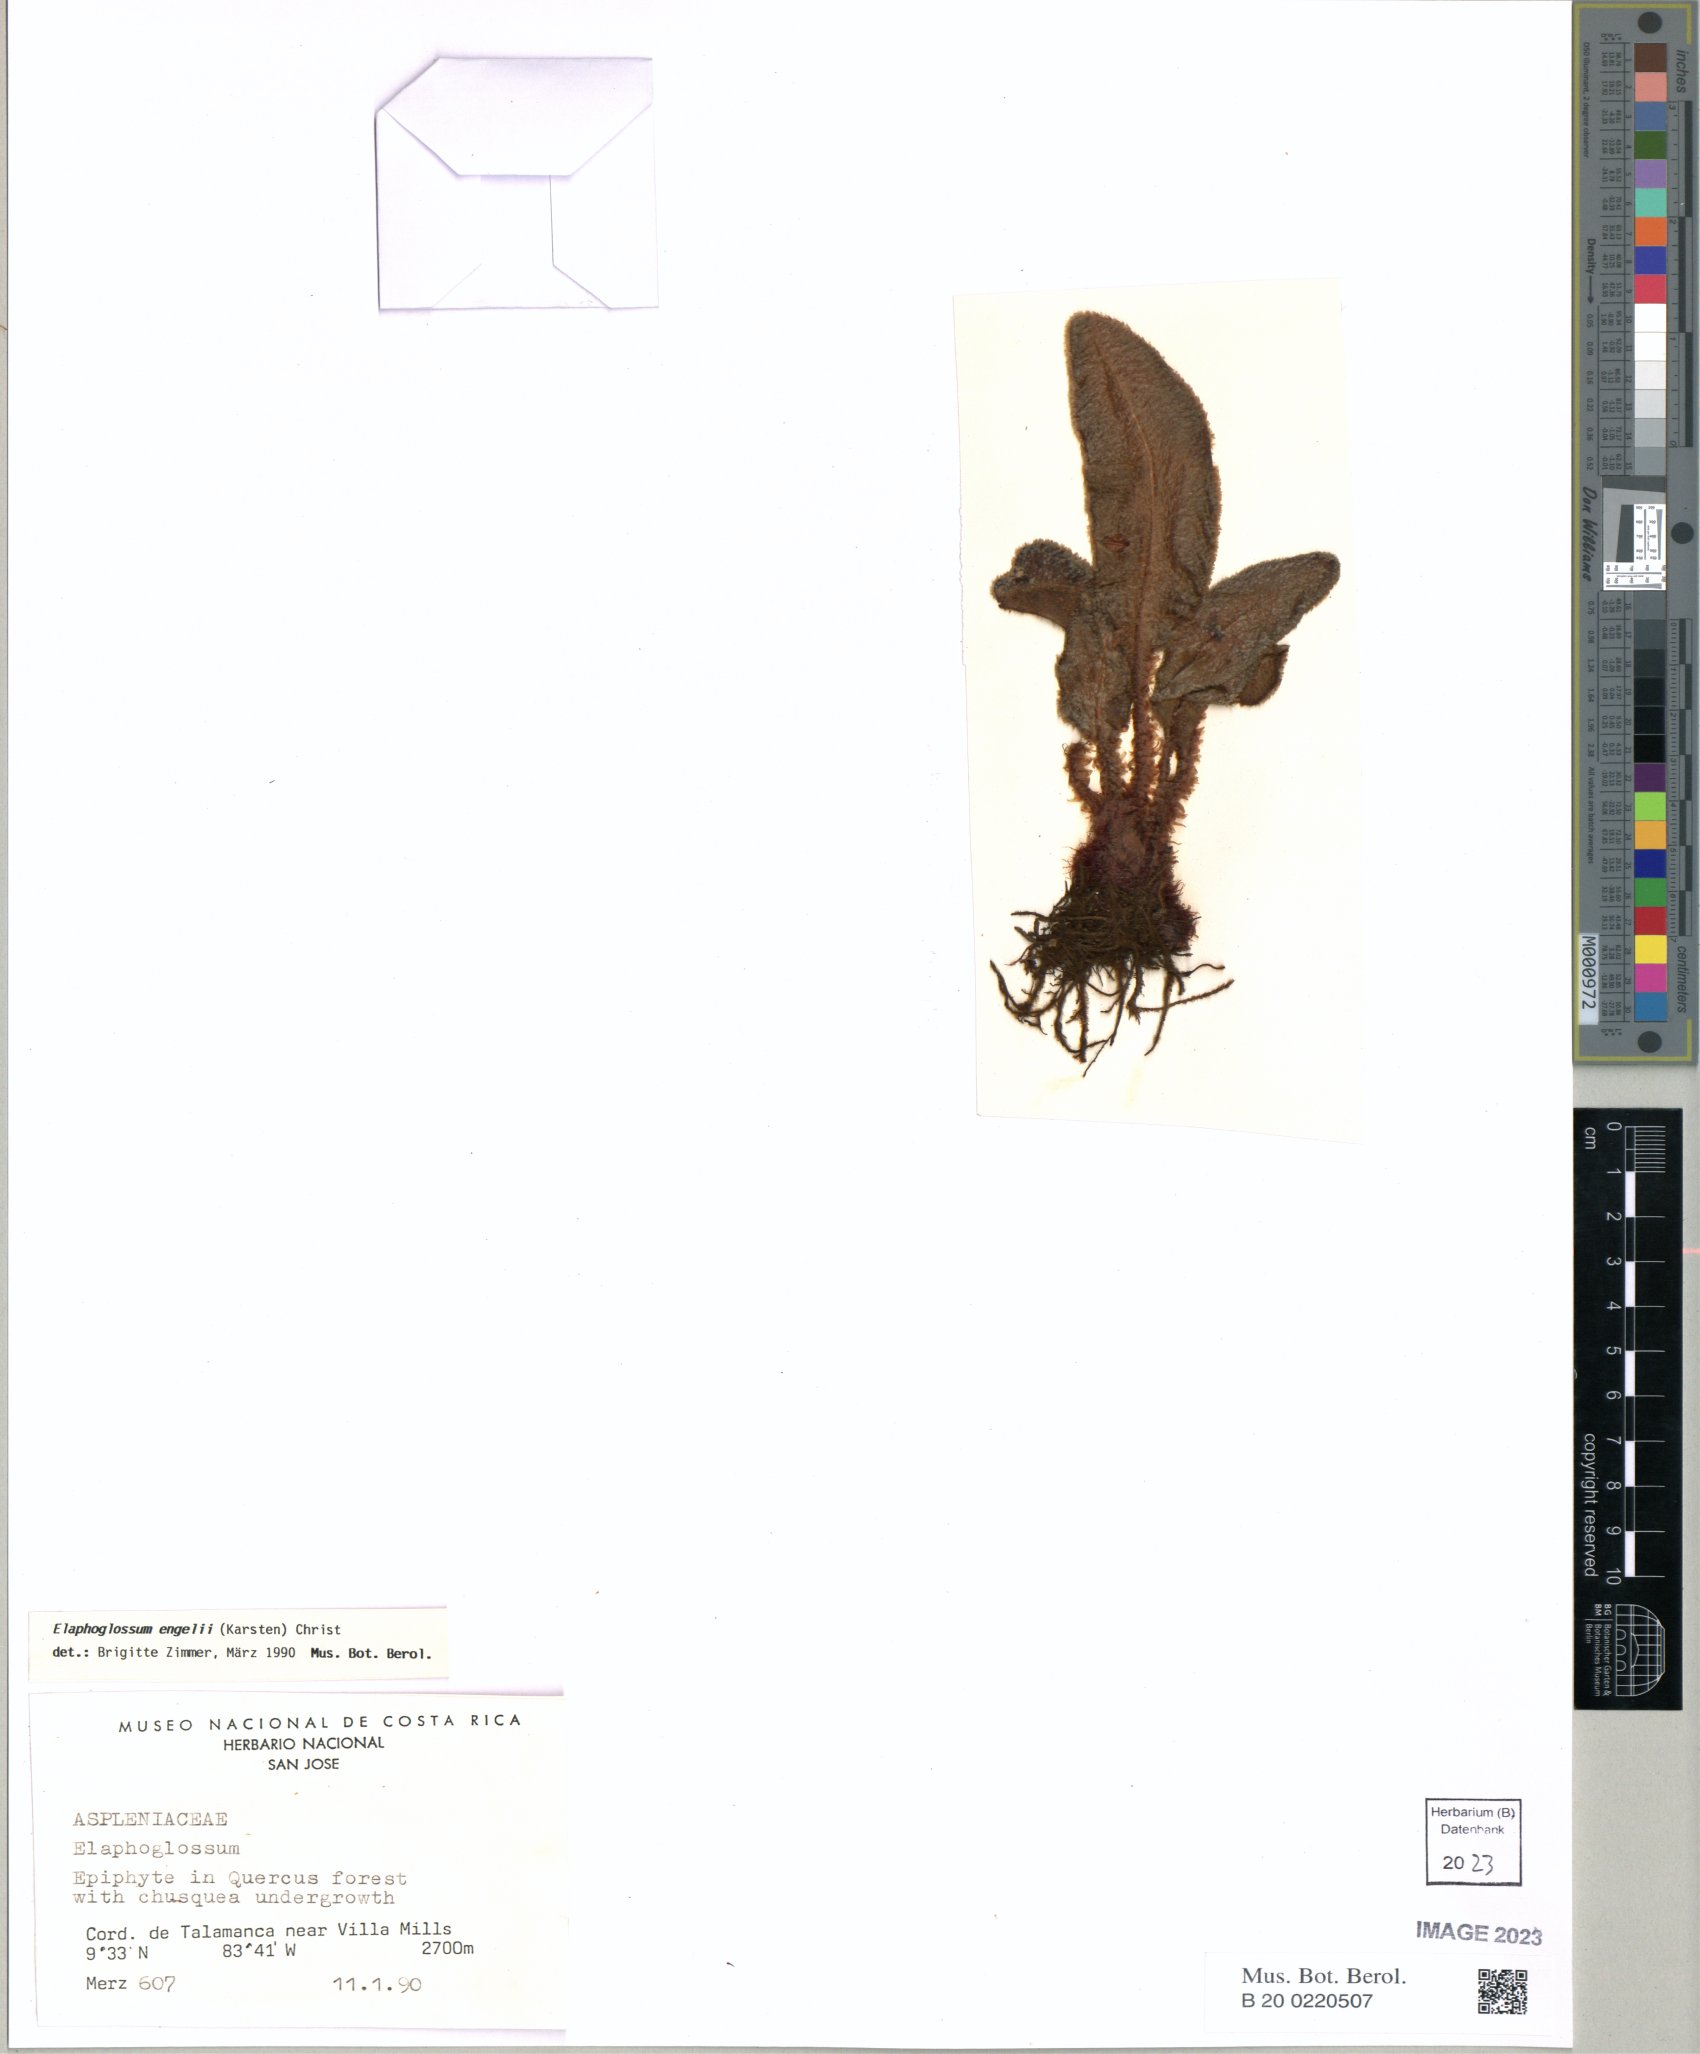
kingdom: Plantae
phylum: Tracheophyta
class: Polypodiopsida
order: Polypodiales
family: Dryopteridaceae
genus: Elaphoglossum
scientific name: Elaphoglossum engelii
